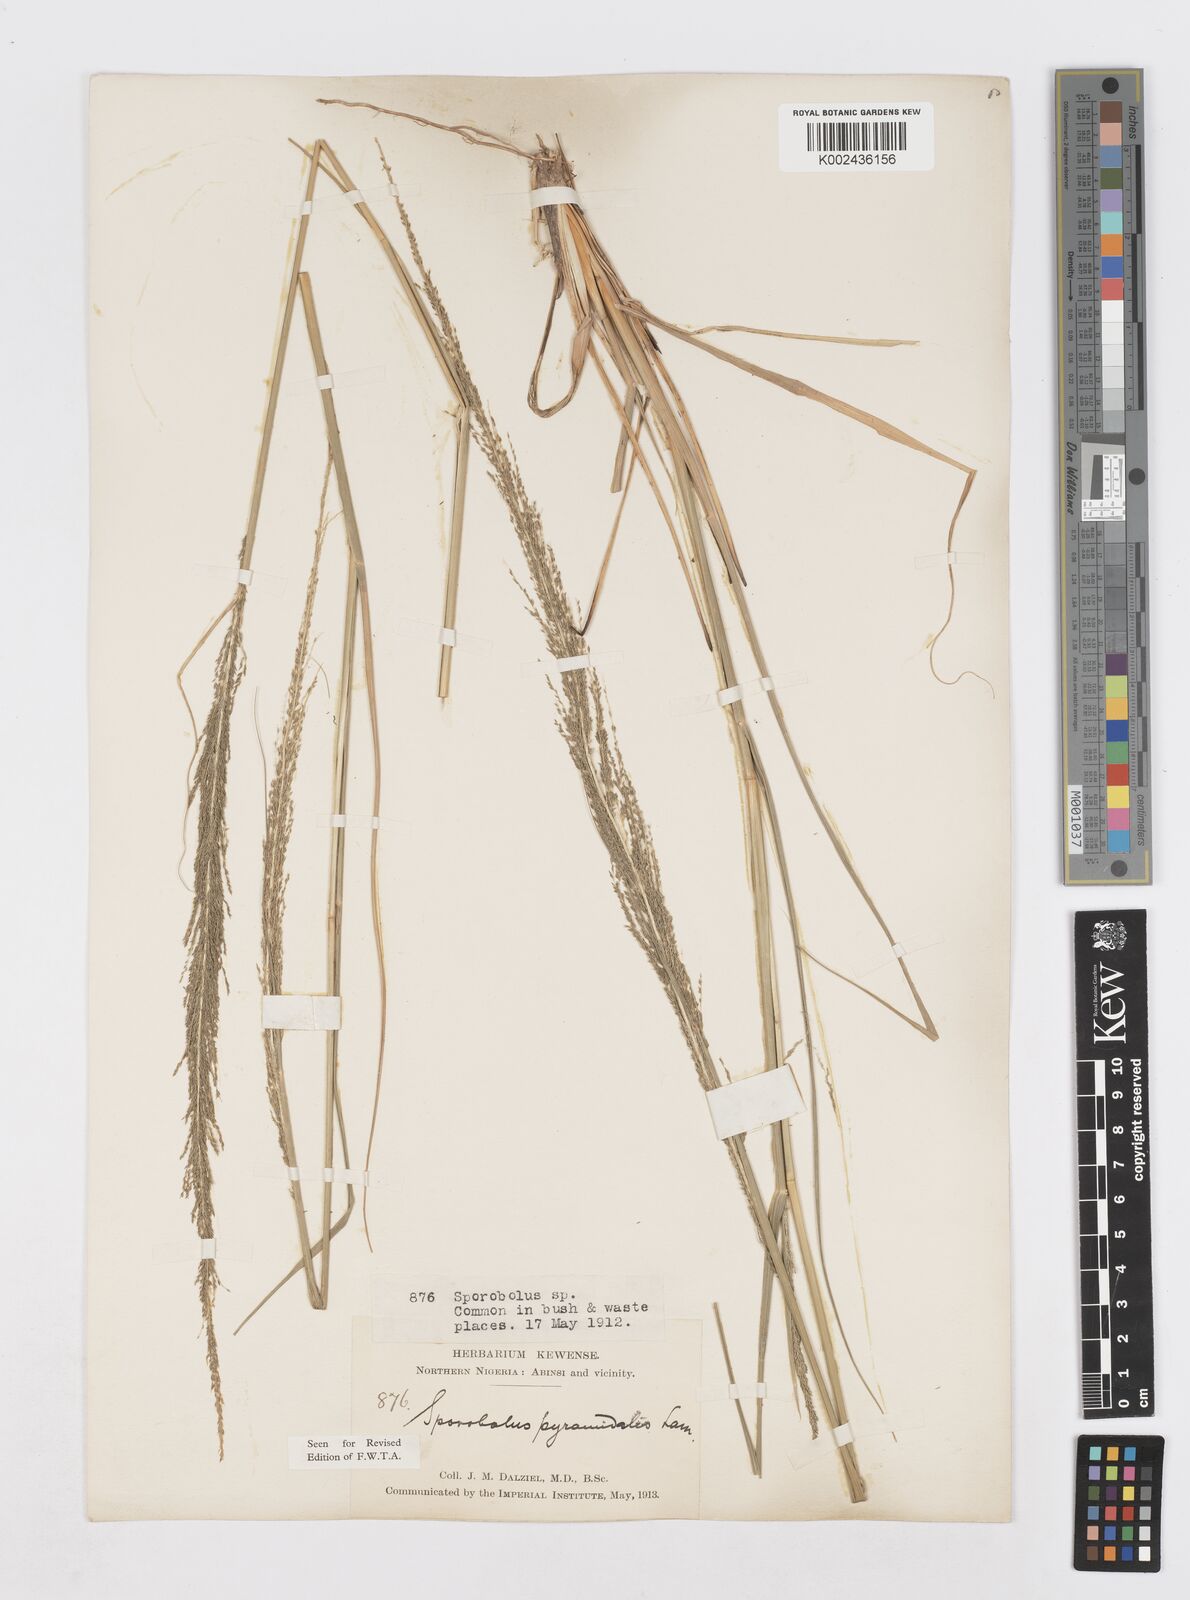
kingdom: Plantae
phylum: Tracheophyta
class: Liliopsida
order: Poales
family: Poaceae
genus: Sporobolus
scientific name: Sporobolus pyramidalis
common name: West indian dropseed
